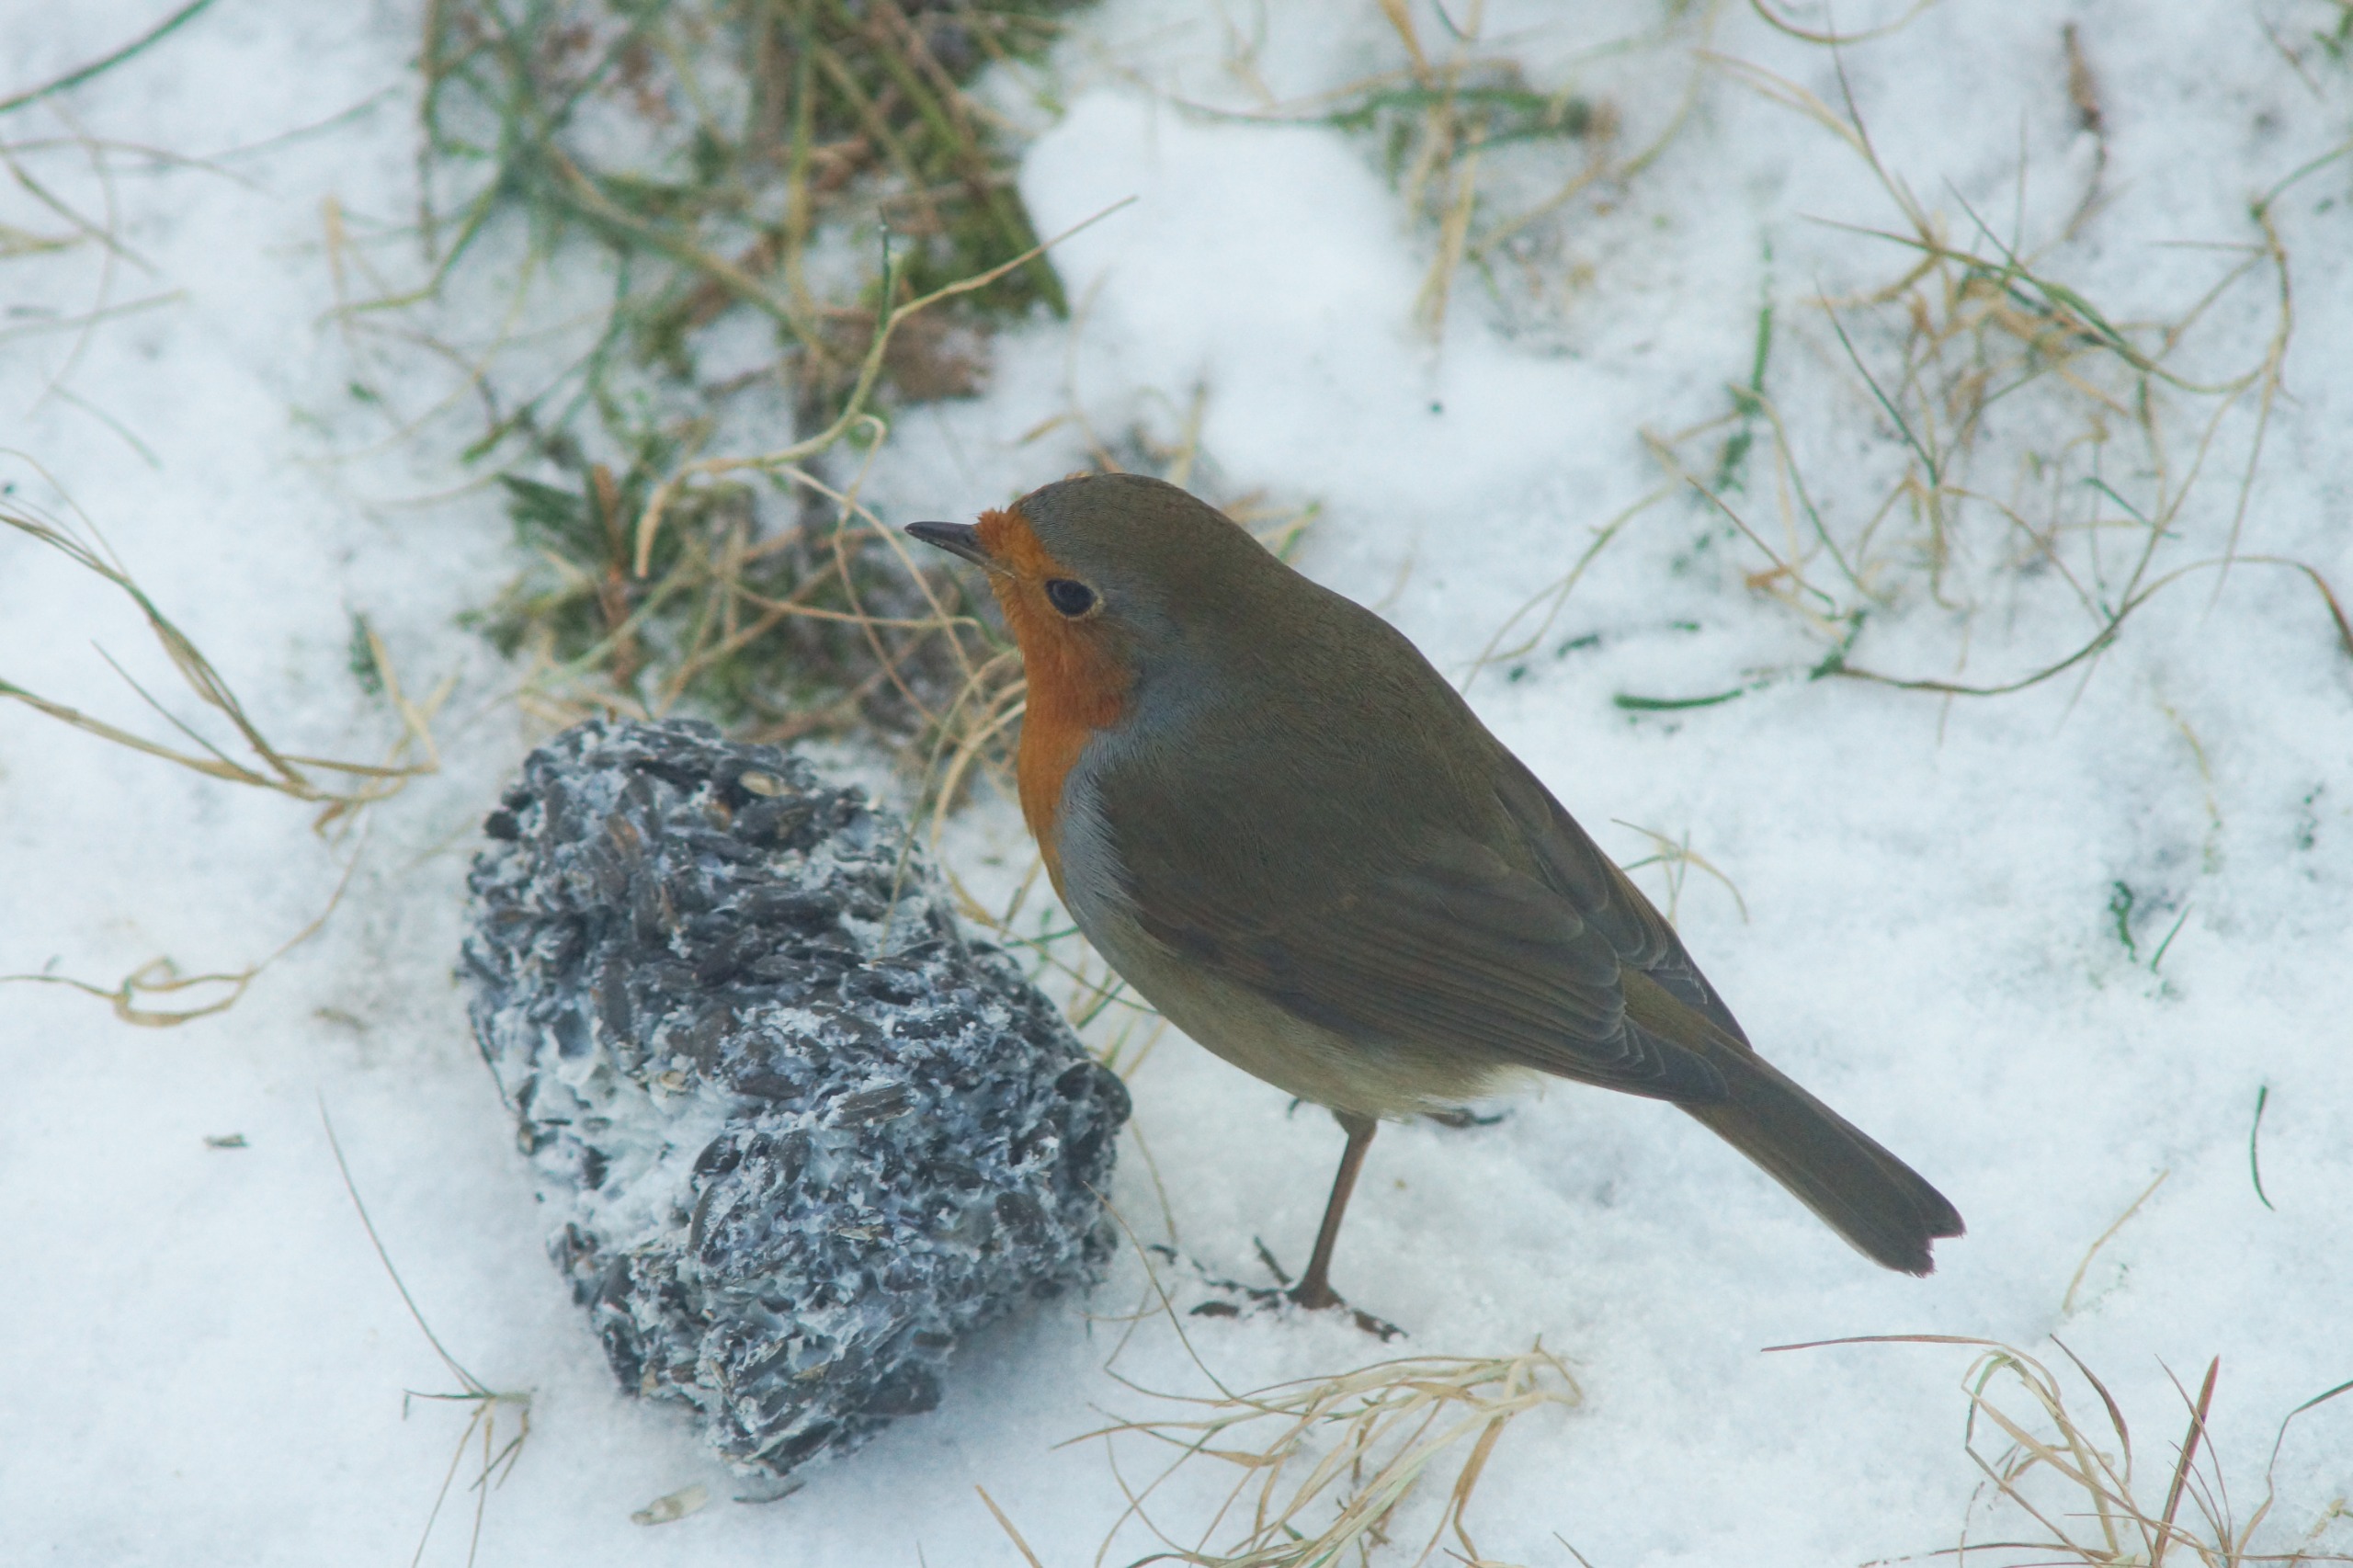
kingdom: Animalia
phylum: Chordata
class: Aves
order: Passeriformes
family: Muscicapidae
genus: Erithacus
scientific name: Erithacus rubecula
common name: Rødhals/rødkælk
